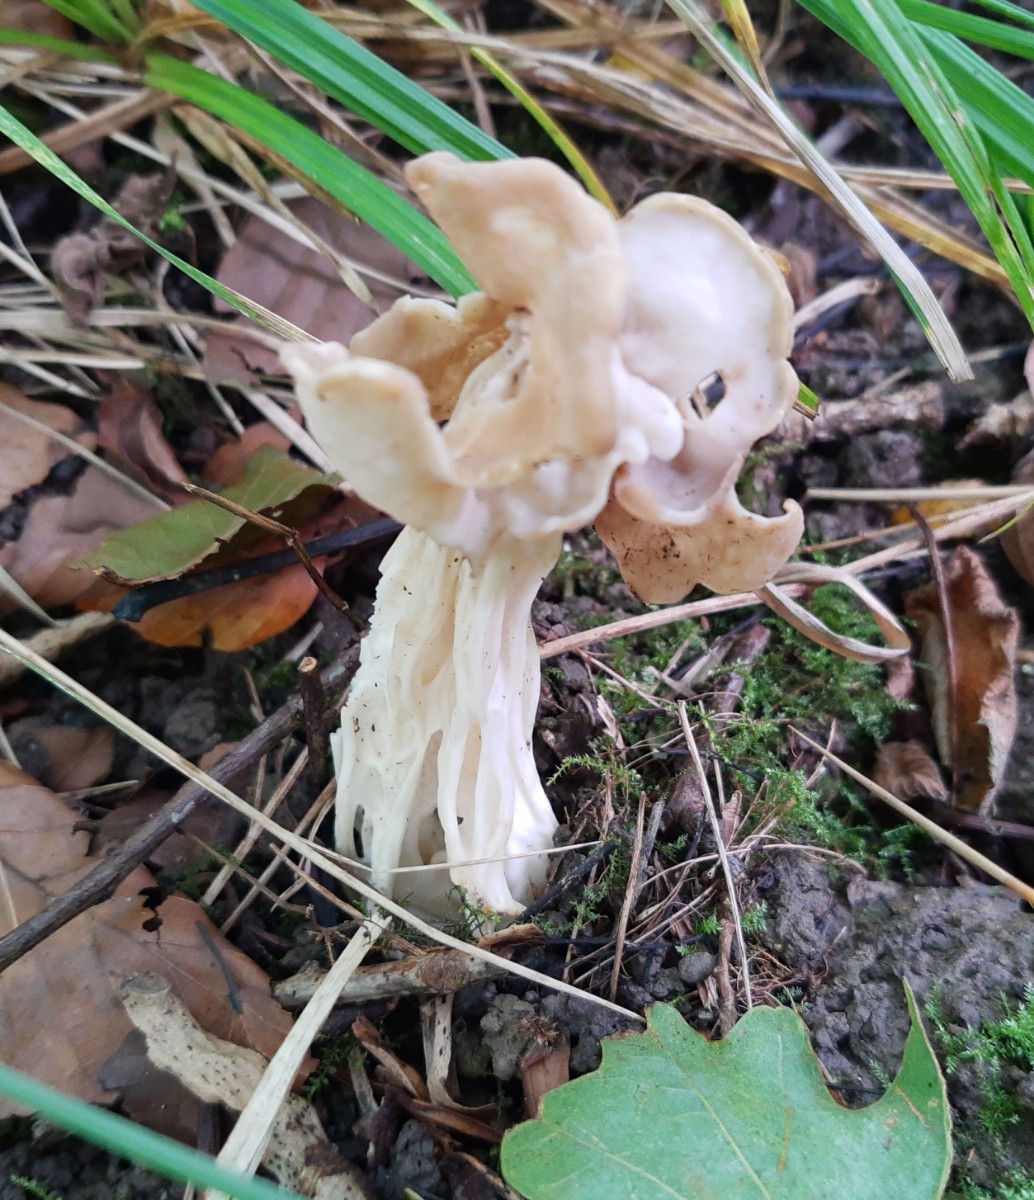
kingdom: Fungi
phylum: Ascomycota
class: Pezizomycetes
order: Pezizales
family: Helvellaceae
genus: Helvella
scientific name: Helvella crispa
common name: kruset foldhat
